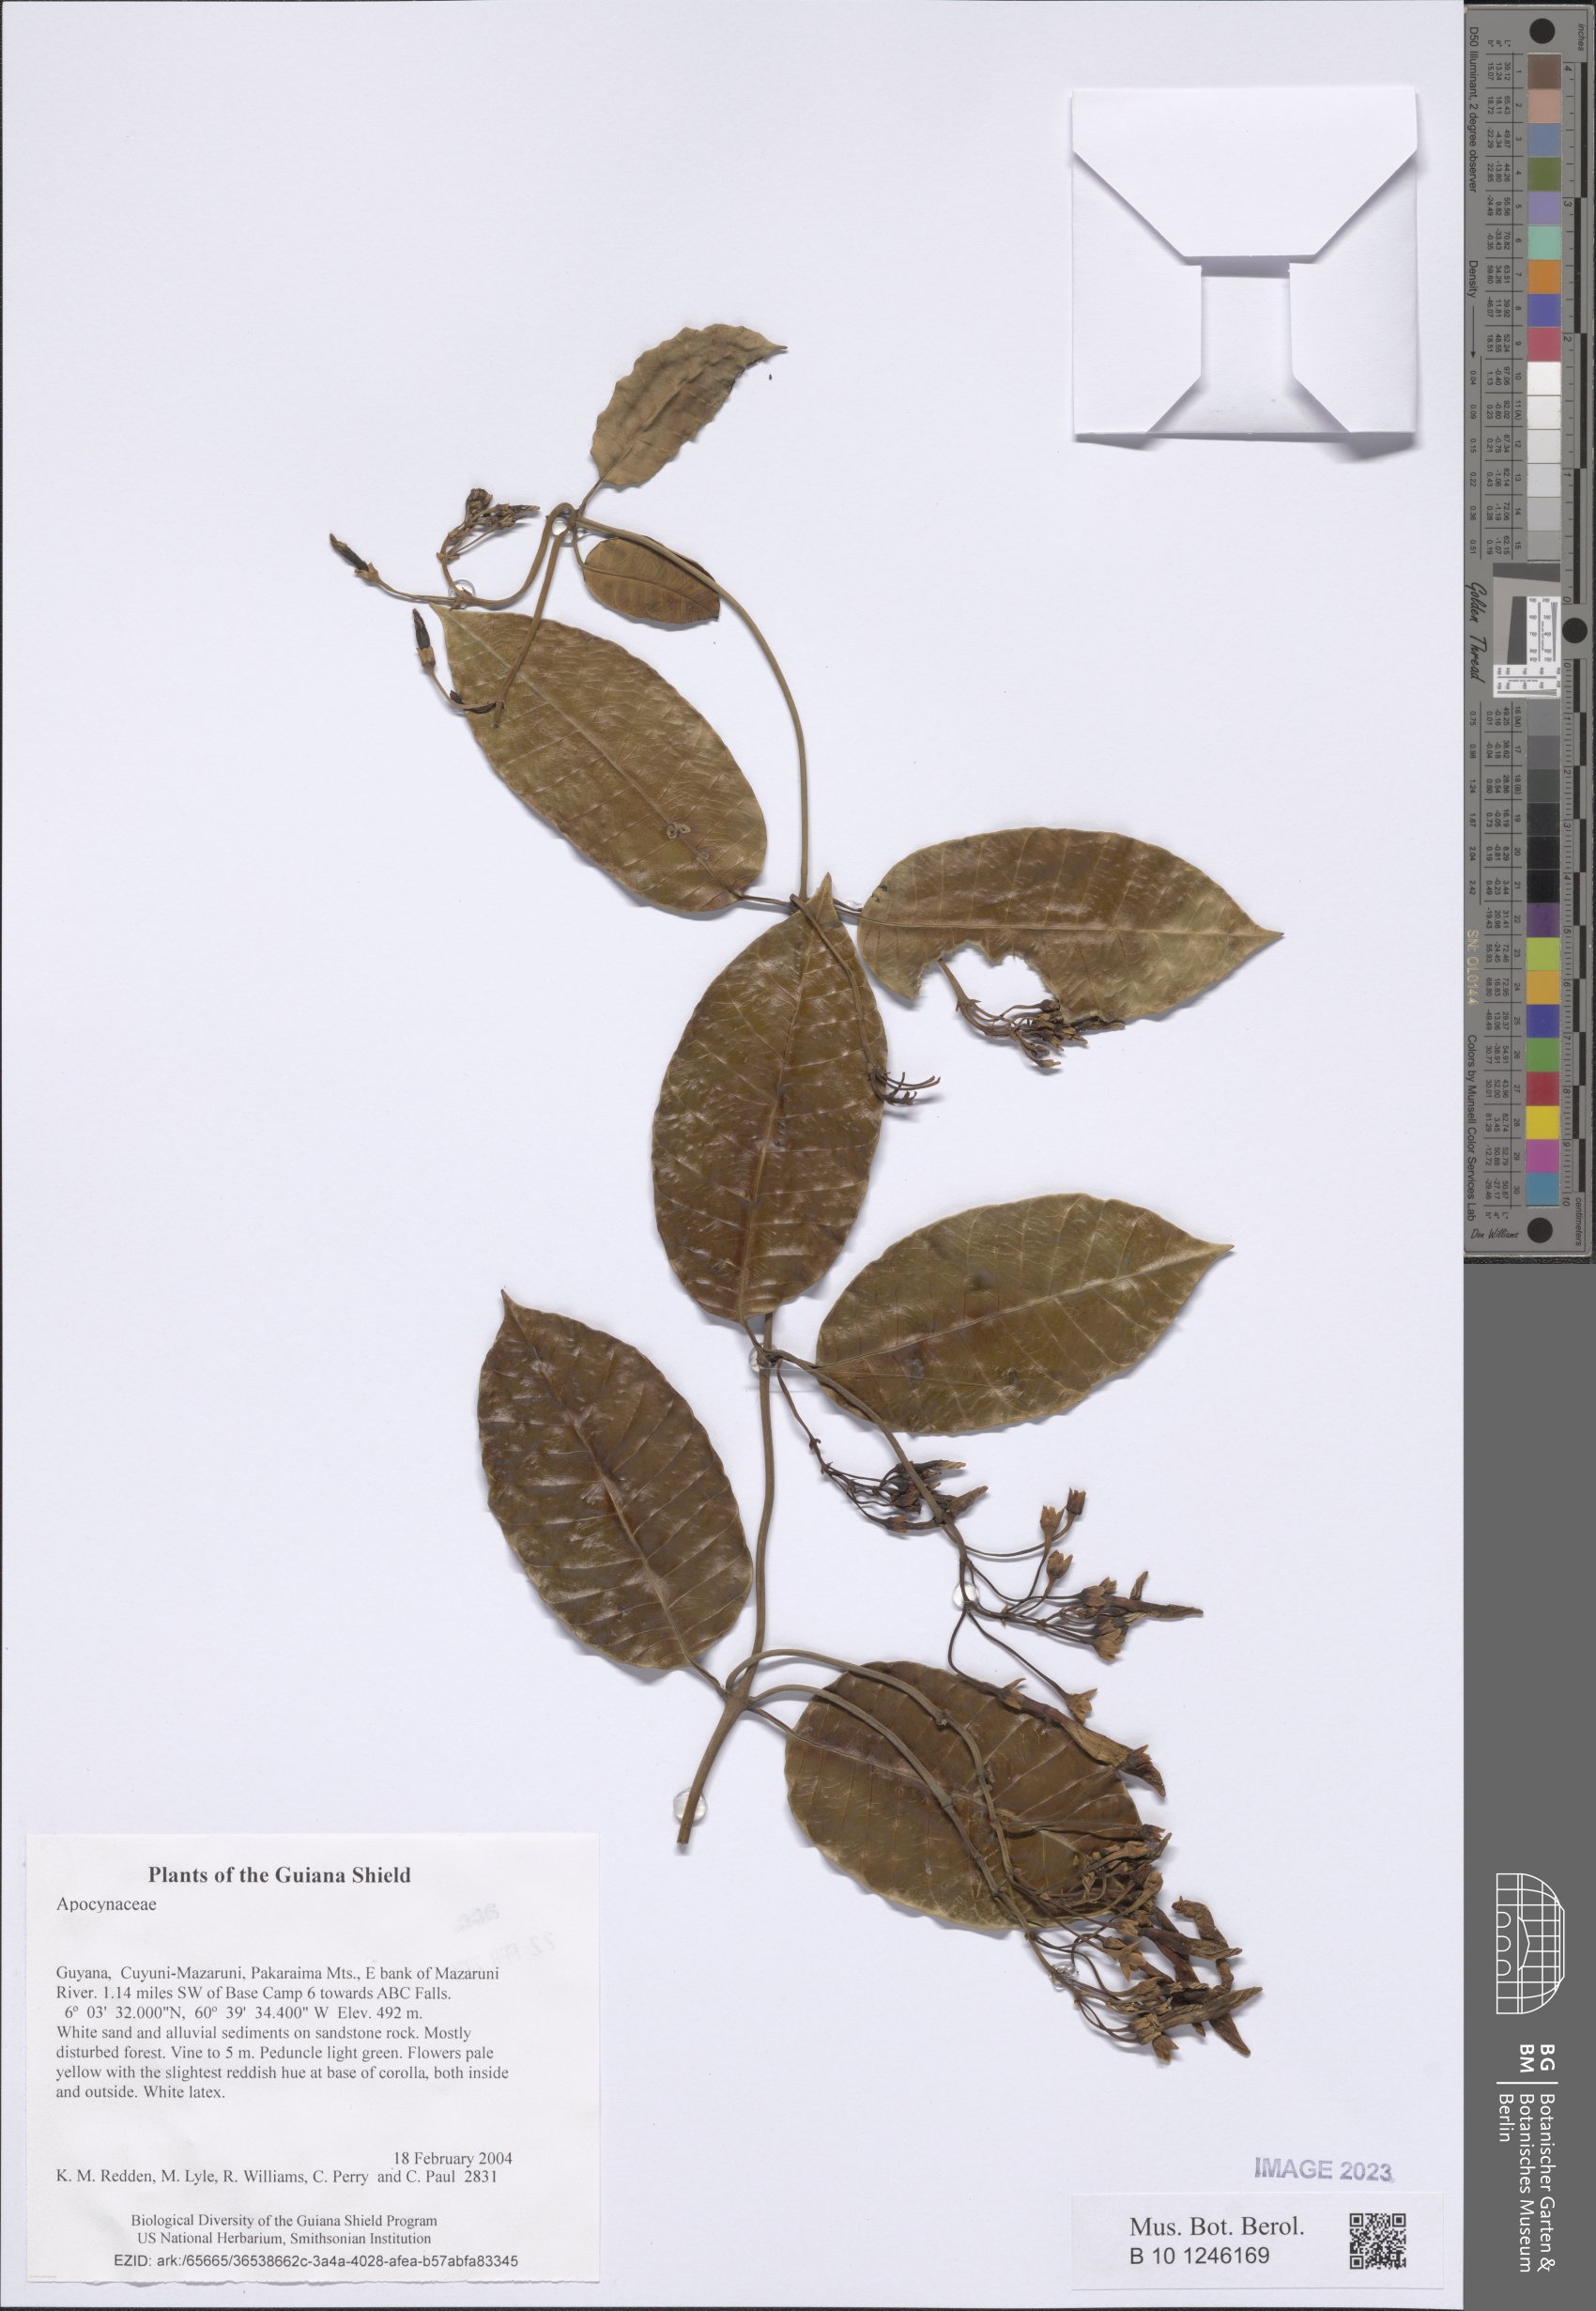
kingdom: Plantae
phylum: Tracheophyta
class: Magnoliopsida
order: Gentianales
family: Apocynaceae
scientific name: Apocynaceae
